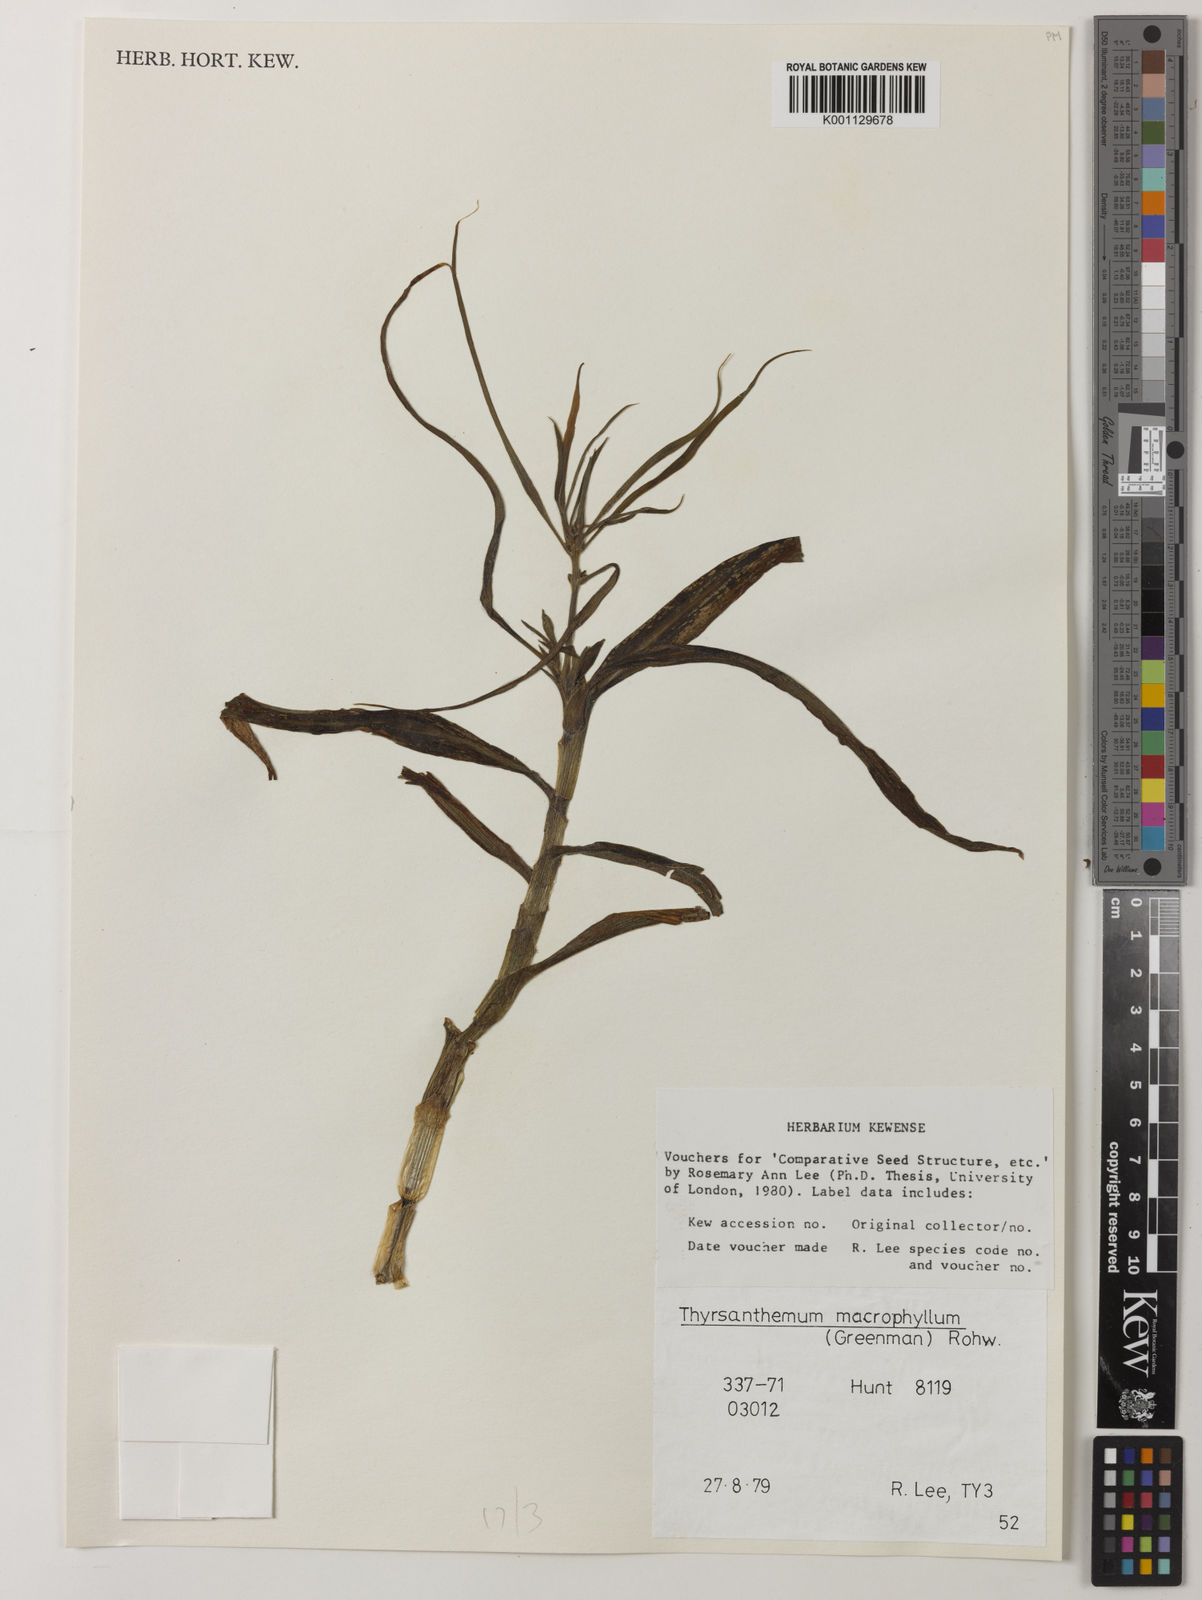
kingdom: Plantae
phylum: Tracheophyta
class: Liliopsida
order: Commelinales
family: Commelinaceae
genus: Thyrsanthemum
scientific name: Thyrsanthemum longifolium
